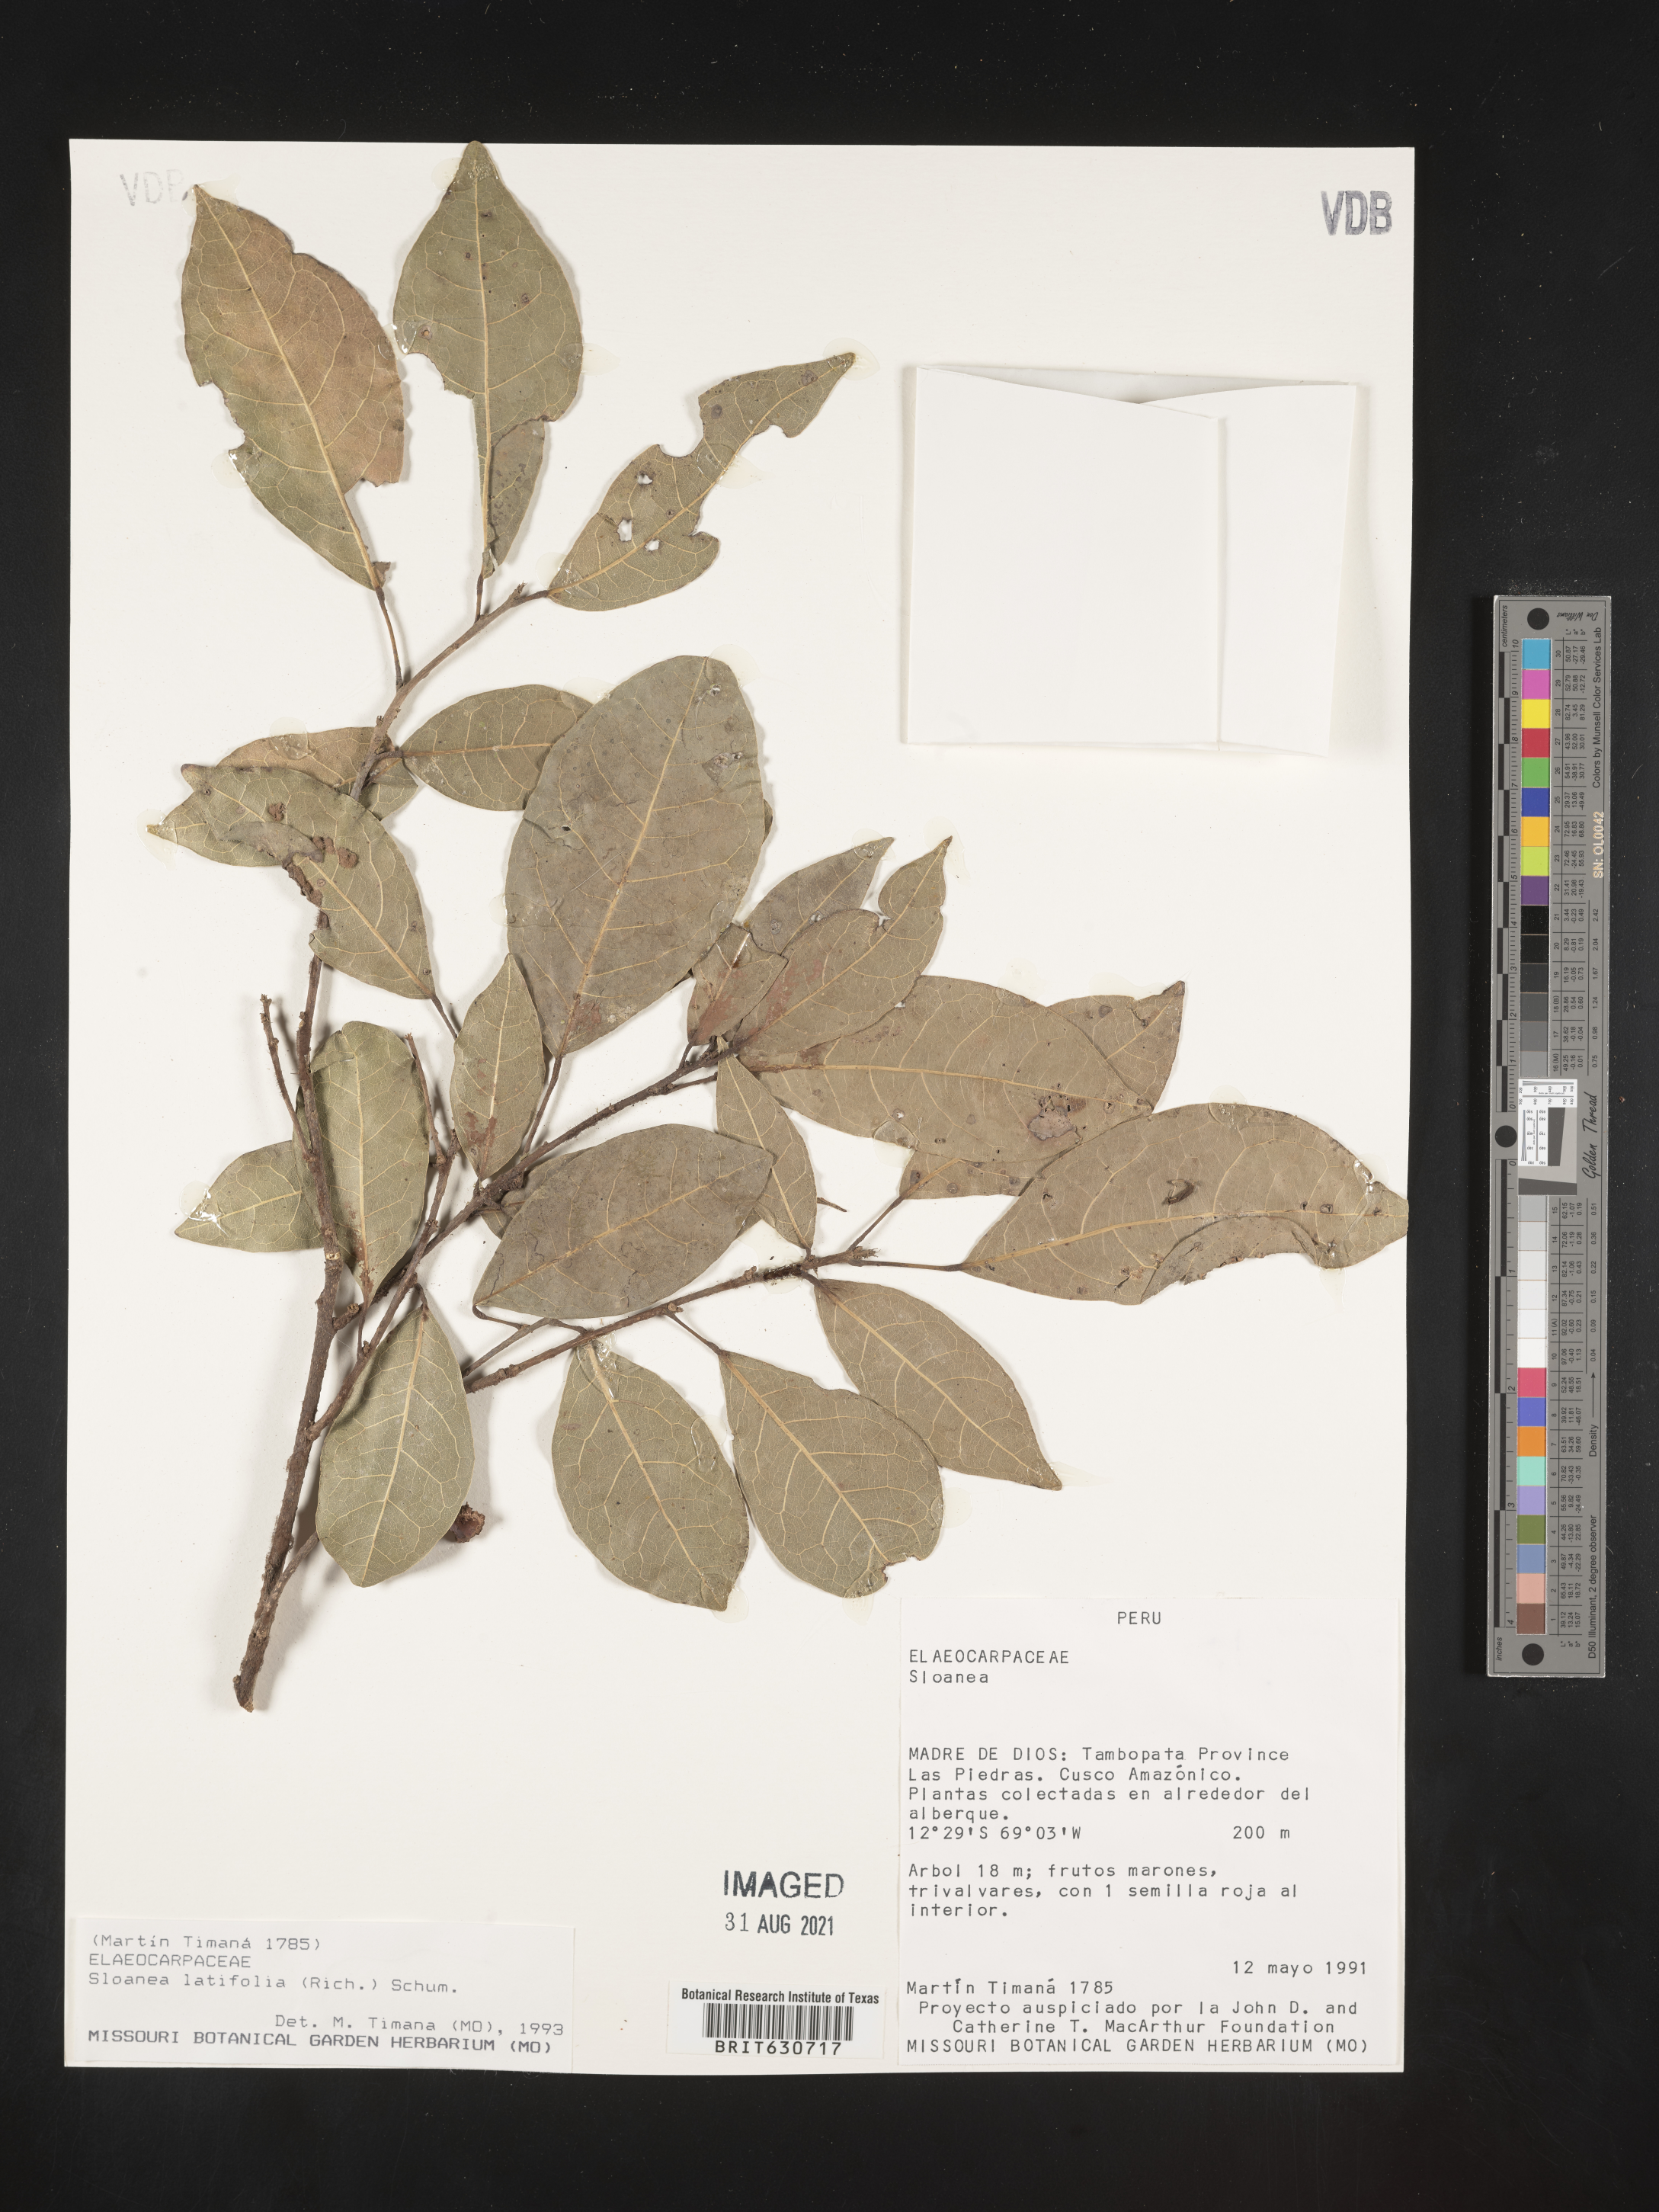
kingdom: Plantae
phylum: Tracheophyta
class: Magnoliopsida
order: Oxalidales
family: Elaeocarpaceae
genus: Sloanea
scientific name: Sloanea
